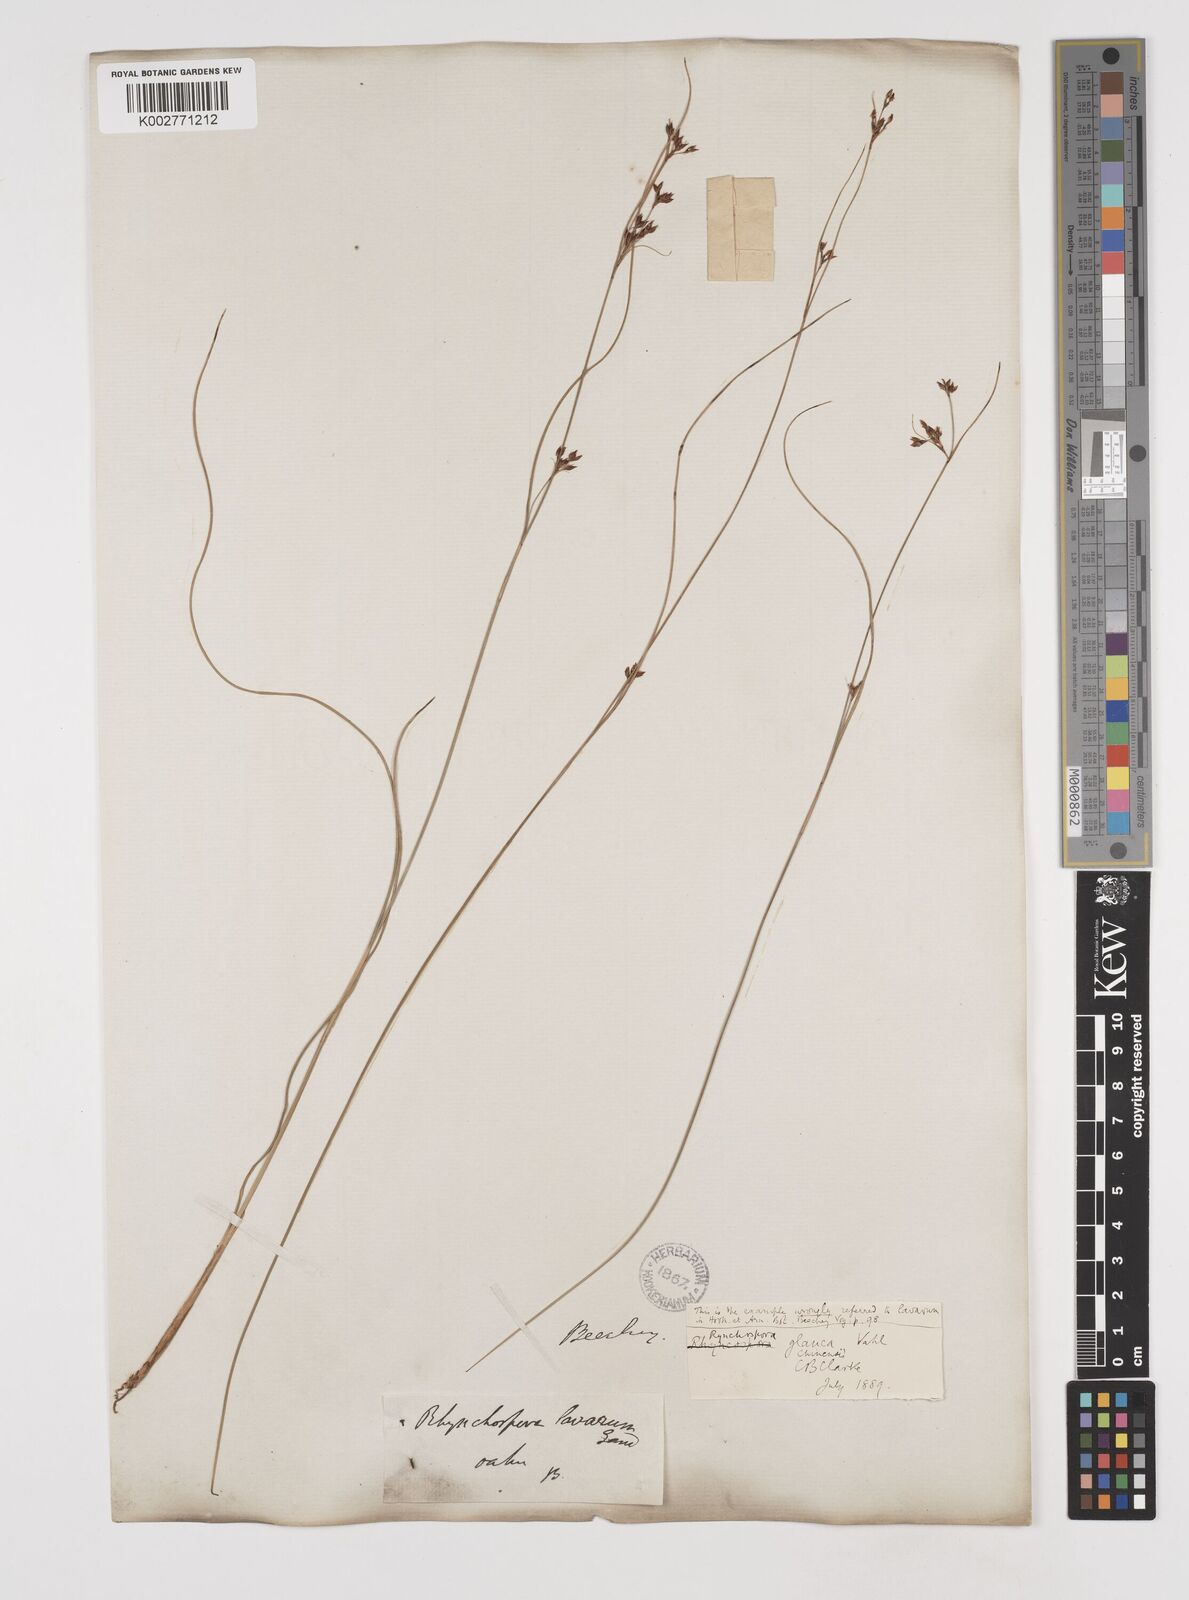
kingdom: Plantae
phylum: Tracheophyta
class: Liliopsida
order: Poales
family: Cyperaceae
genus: Rhynchospora
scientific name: Rhynchospora rugosa
